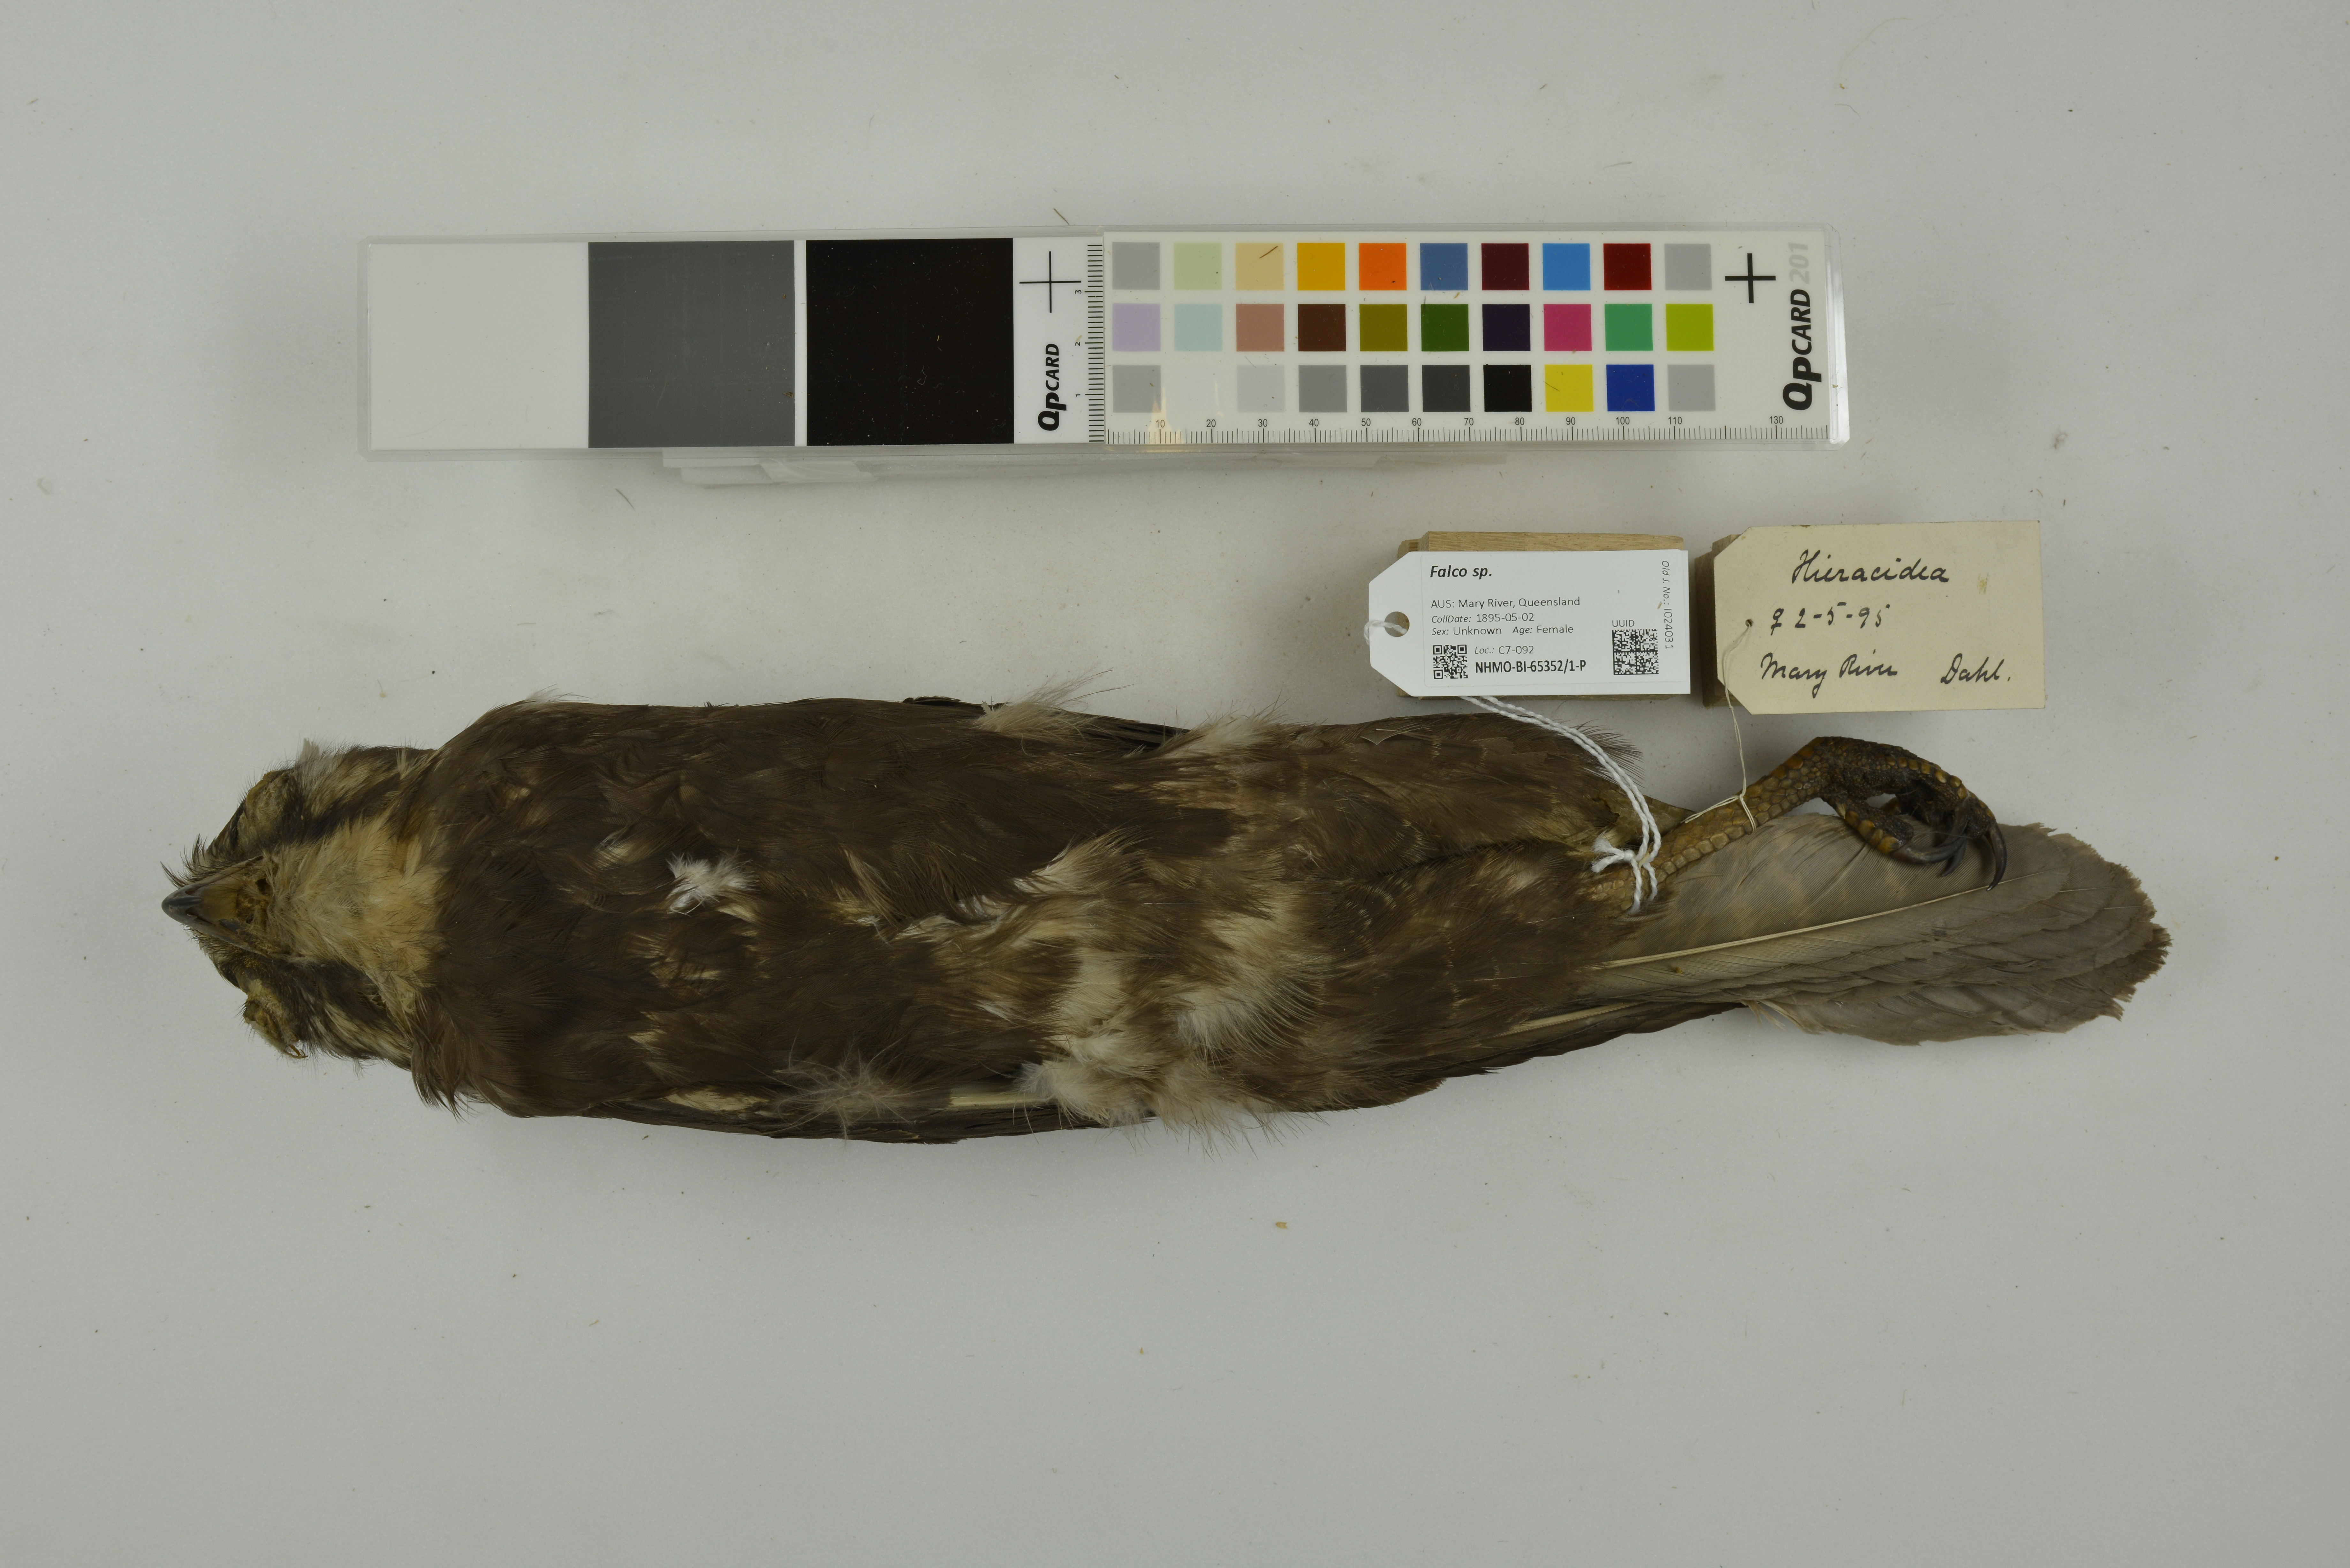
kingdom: Animalia
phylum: Chordata
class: Aves
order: Falconiformes
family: Falconidae
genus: Falco
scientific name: Falco berigora
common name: Brown falcon
